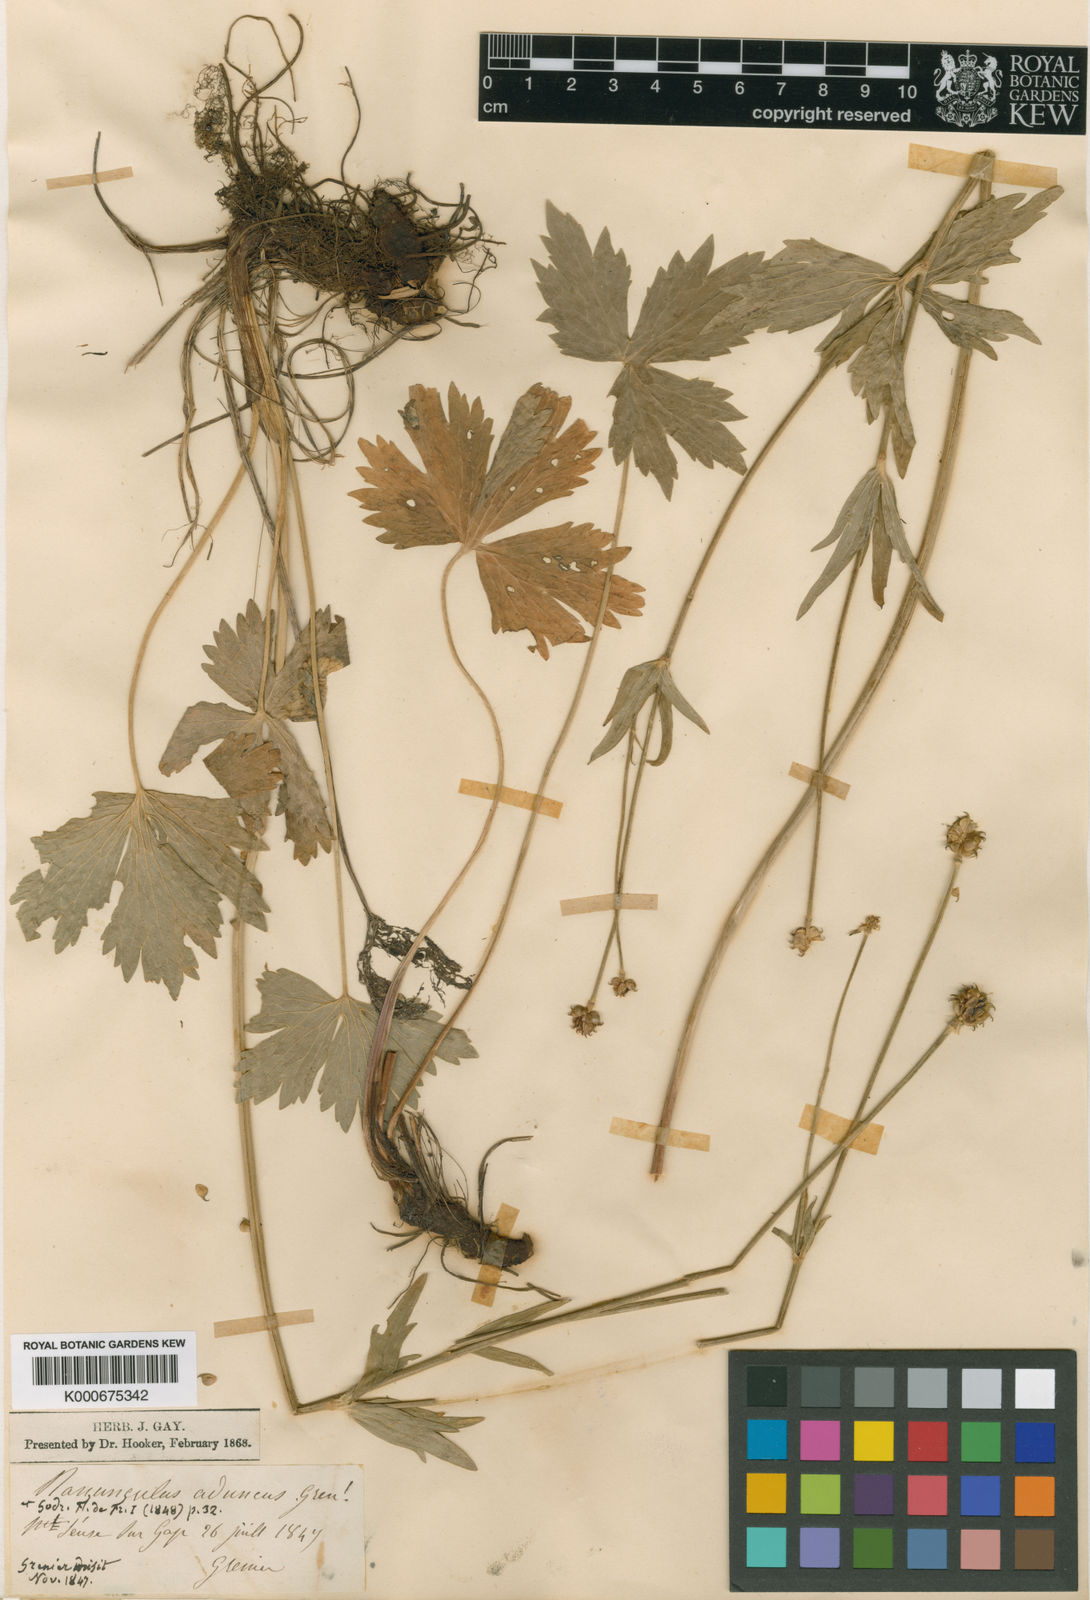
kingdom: Plantae
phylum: Tracheophyta
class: Magnoliopsida
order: Ranunculales
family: Ranunculaceae
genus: Ranunculus
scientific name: Ranunculus aduncus
